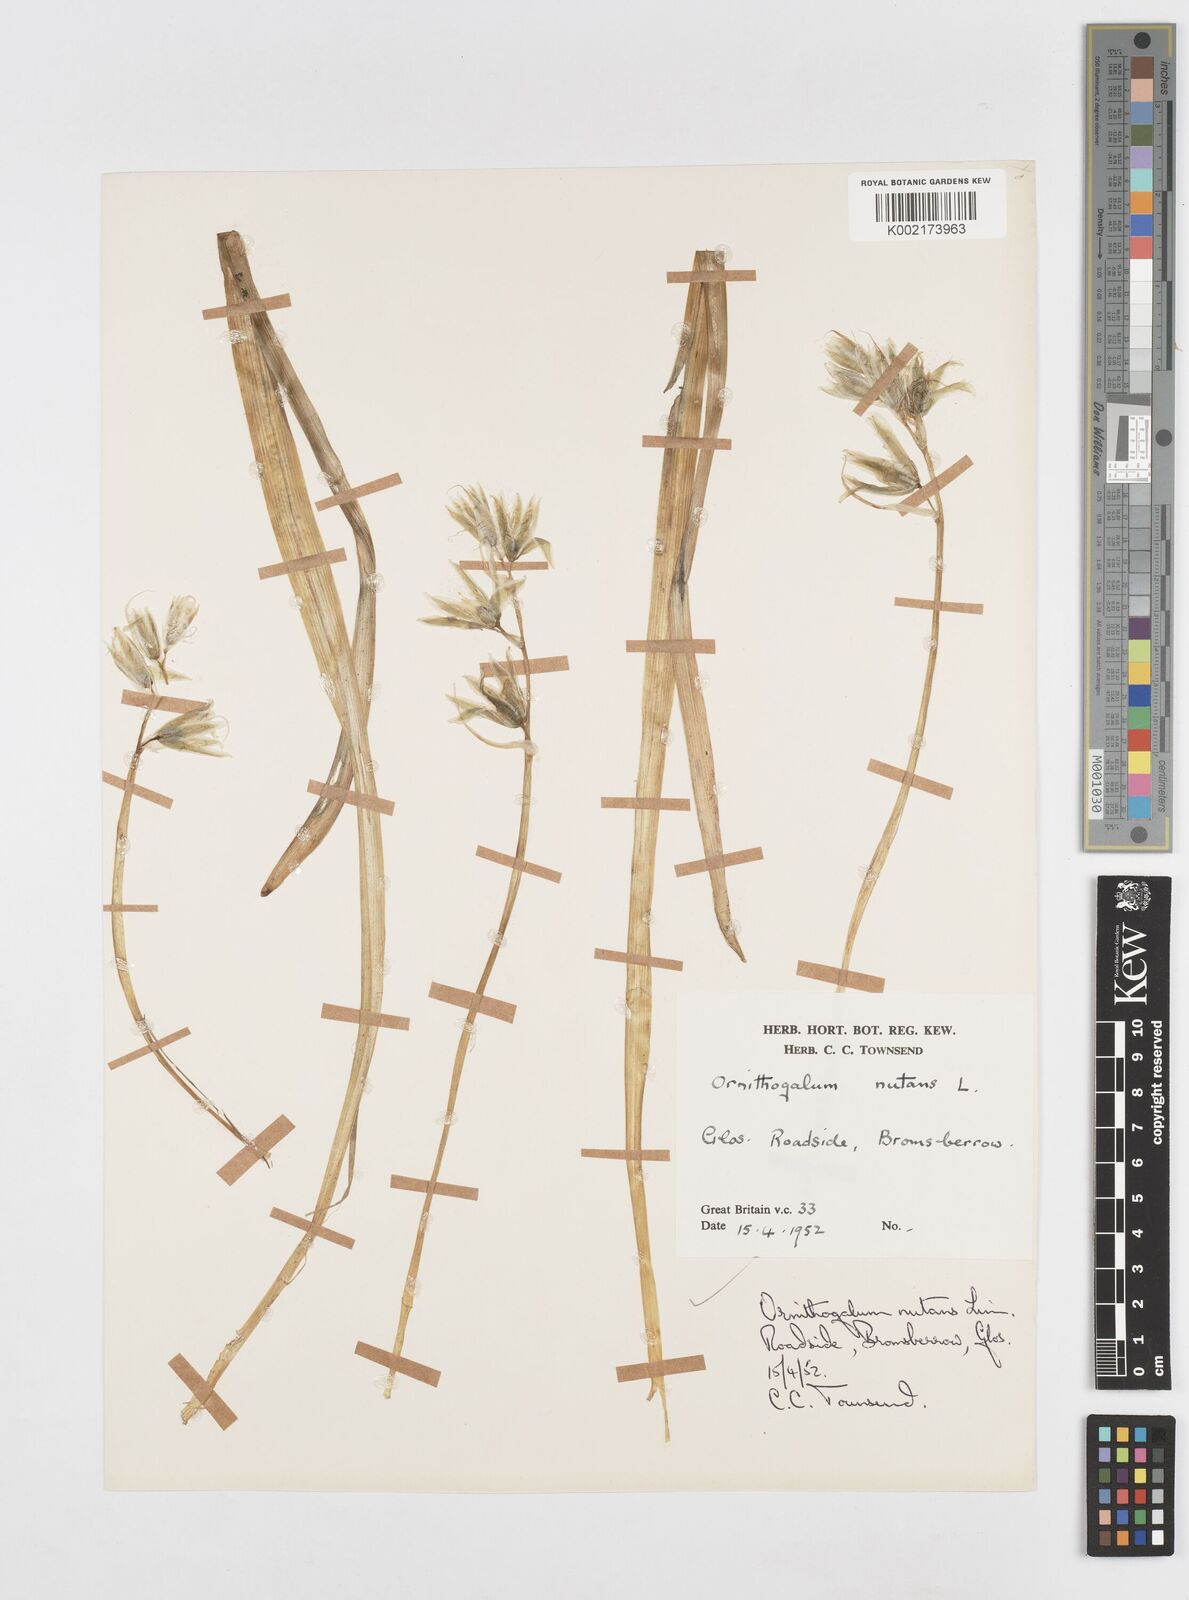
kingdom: Plantae
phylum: Tracheophyta
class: Liliopsida
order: Asparagales
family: Asparagaceae
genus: Ornithogalum
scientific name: Ornithogalum nutans
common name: Drooping star-of-bethlehem
